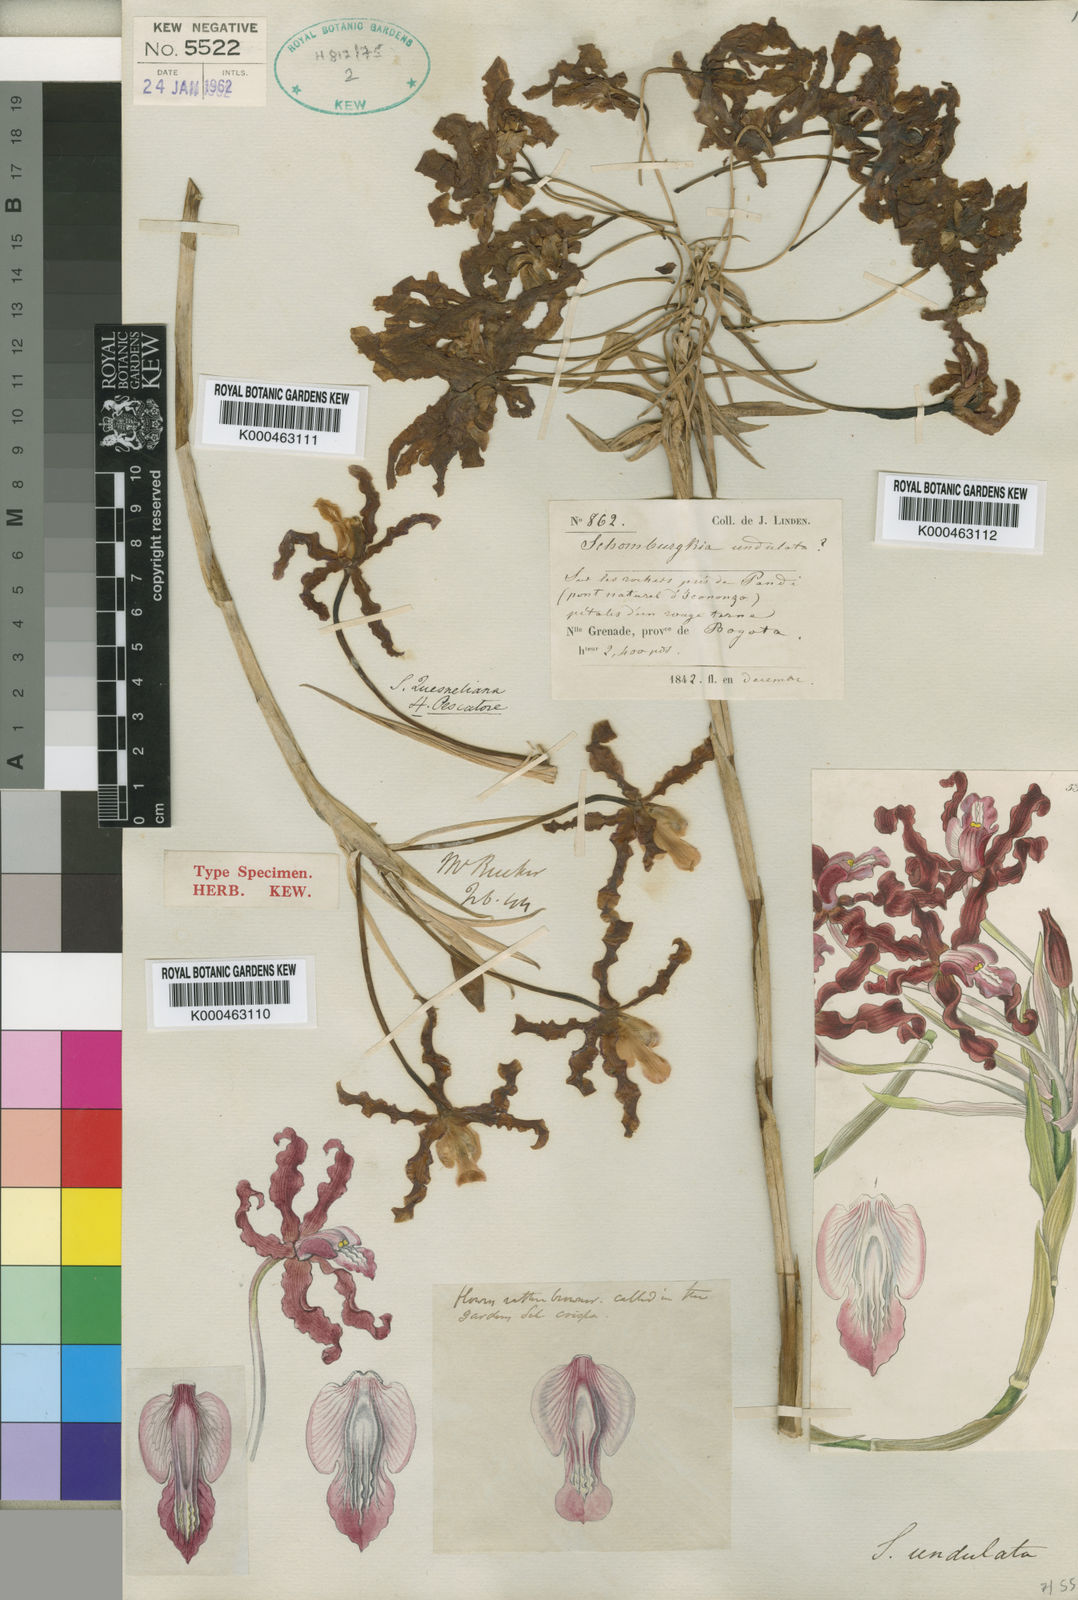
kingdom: Plantae
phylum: Tracheophyta
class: Liliopsida
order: Asparagales
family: Orchidaceae
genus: Laelia
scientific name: Laelia undulata
